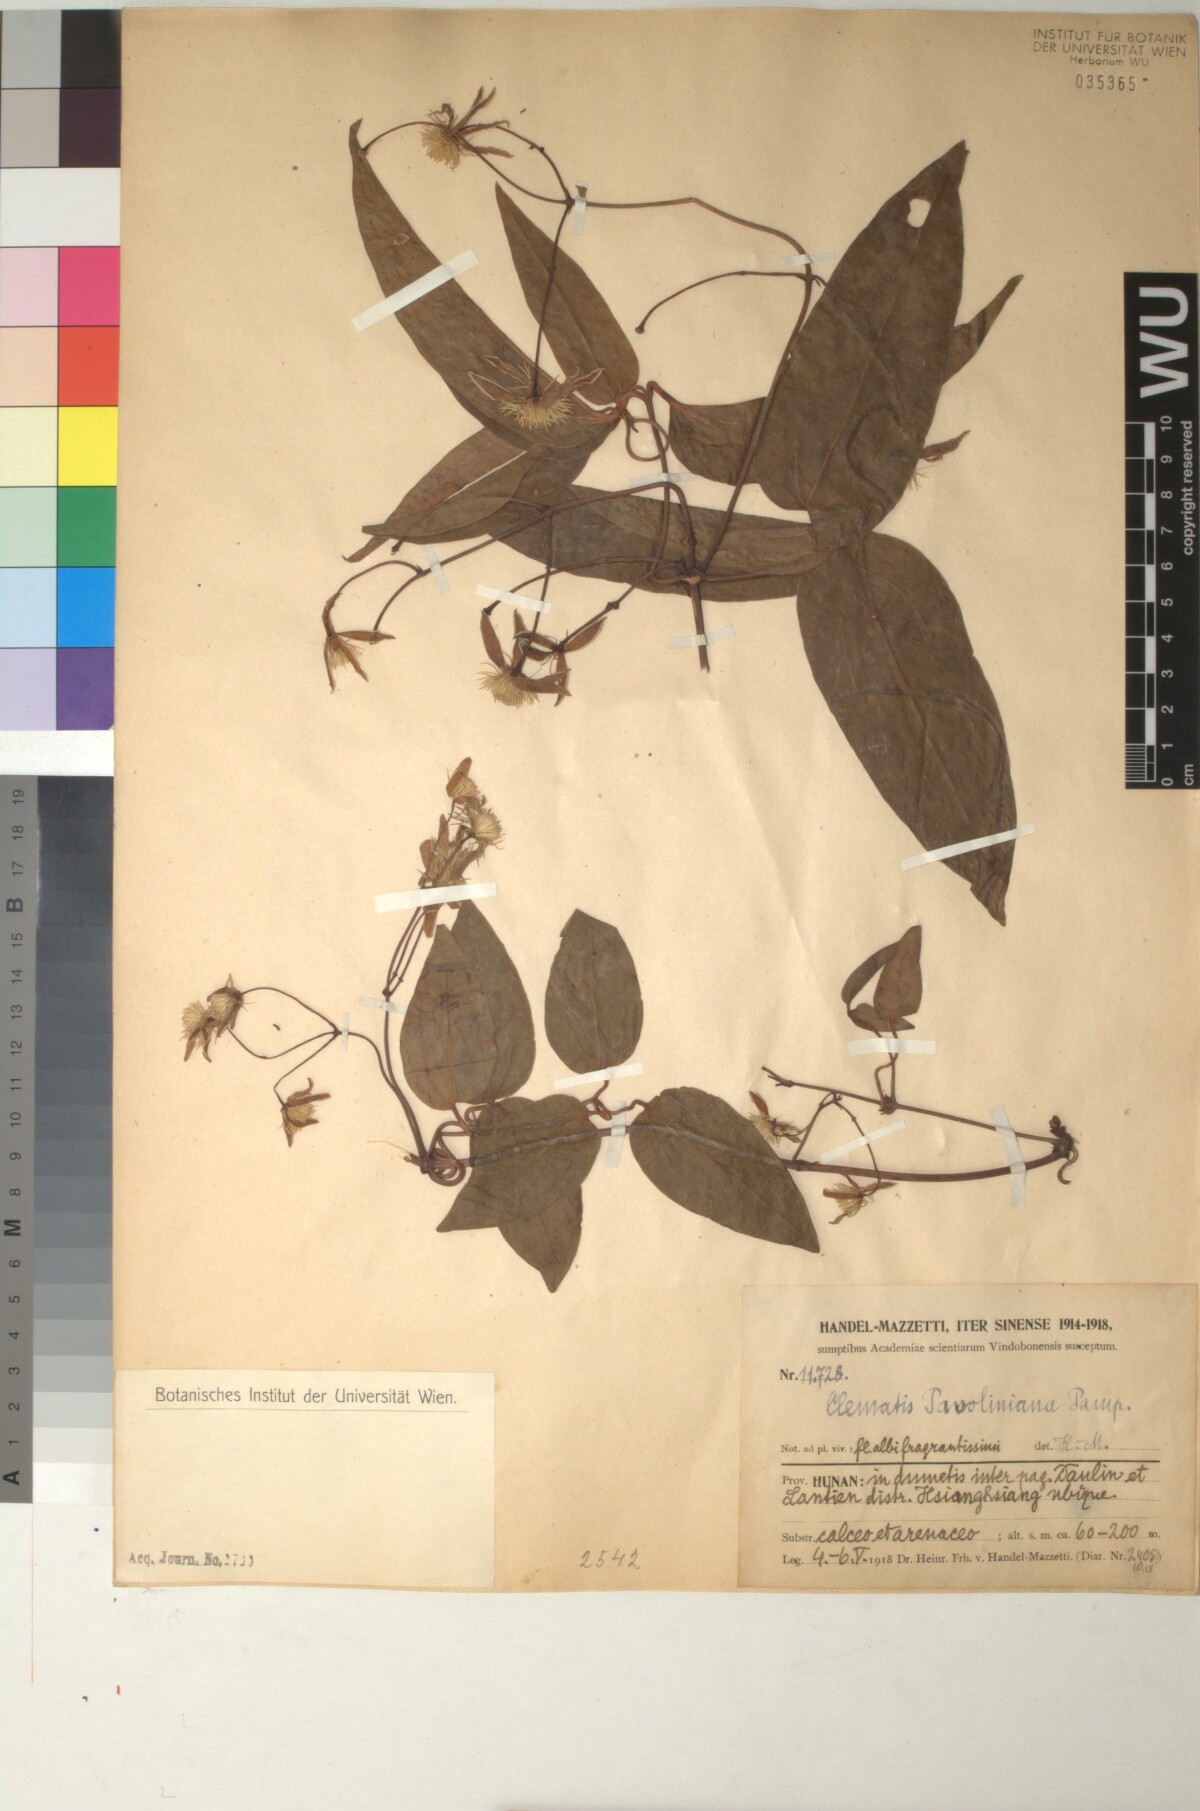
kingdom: Plantae
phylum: Tracheophyta
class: Magnoliopsida
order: Ranunculales
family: Ranunculaceae
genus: Clematis
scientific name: Clematis finetiana
